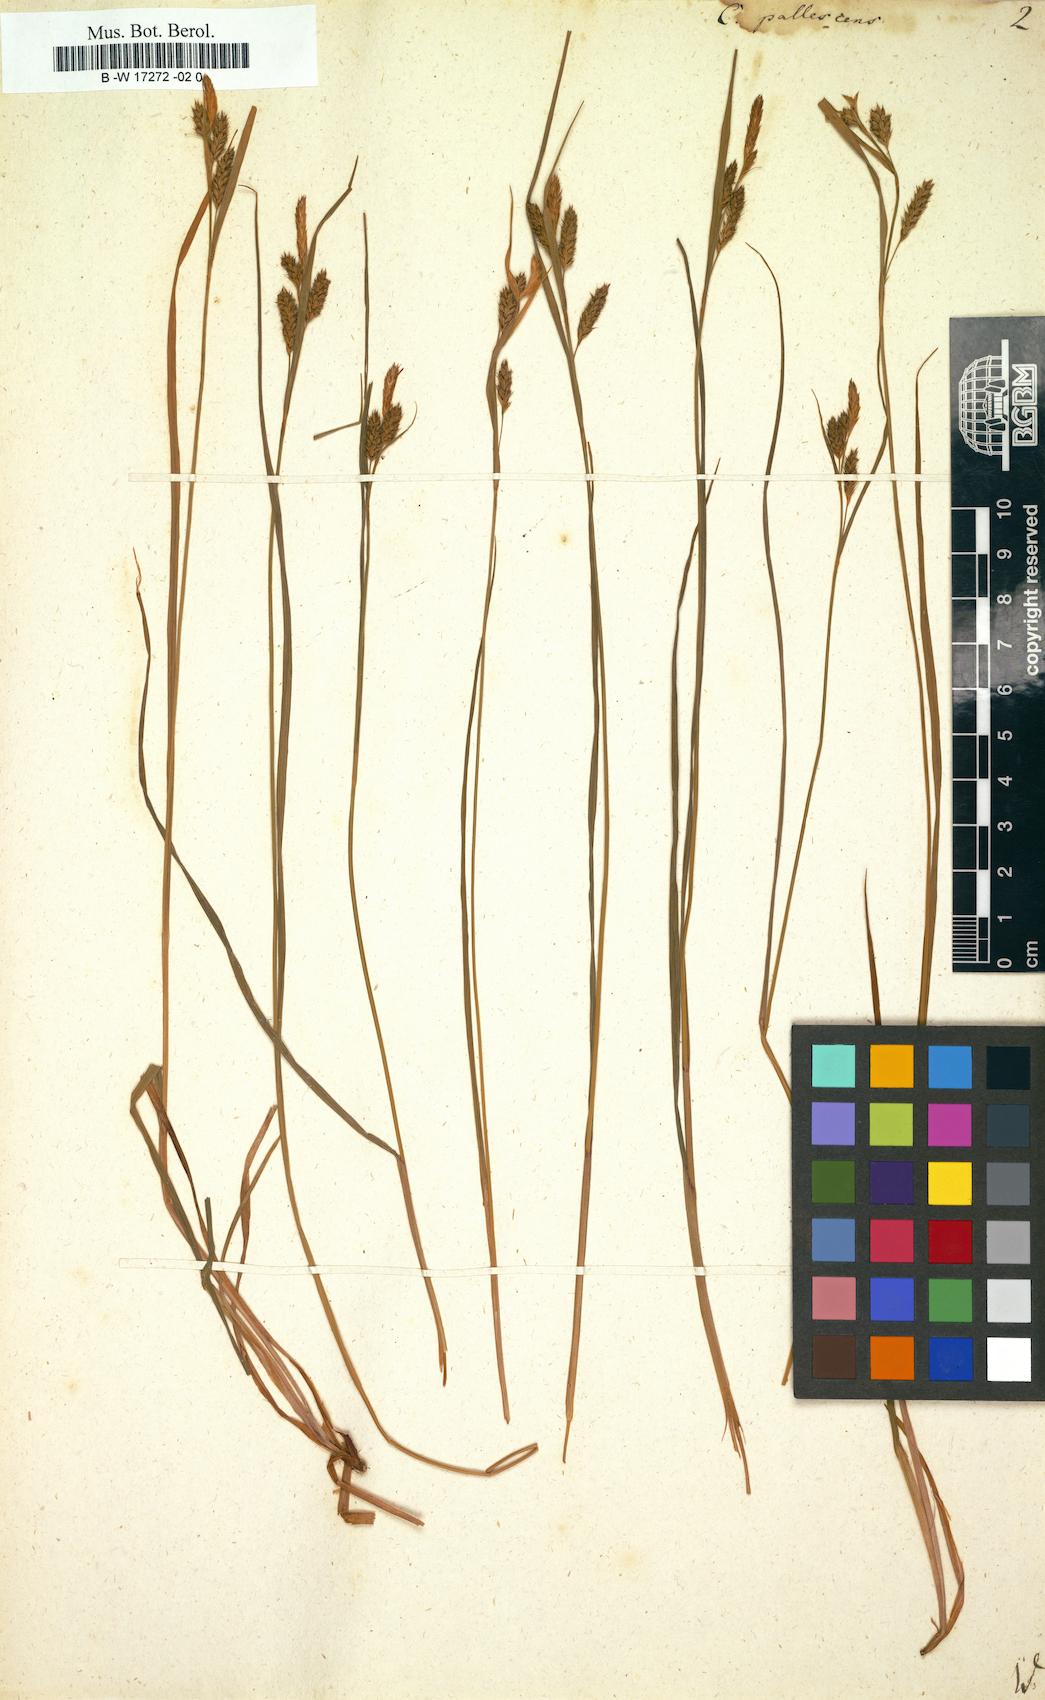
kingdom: Plantae
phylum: Tracheophyta
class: Liliopsida
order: Poales
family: Cyperaceae
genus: Carex
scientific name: Carex pallescens
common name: Pale sedge
